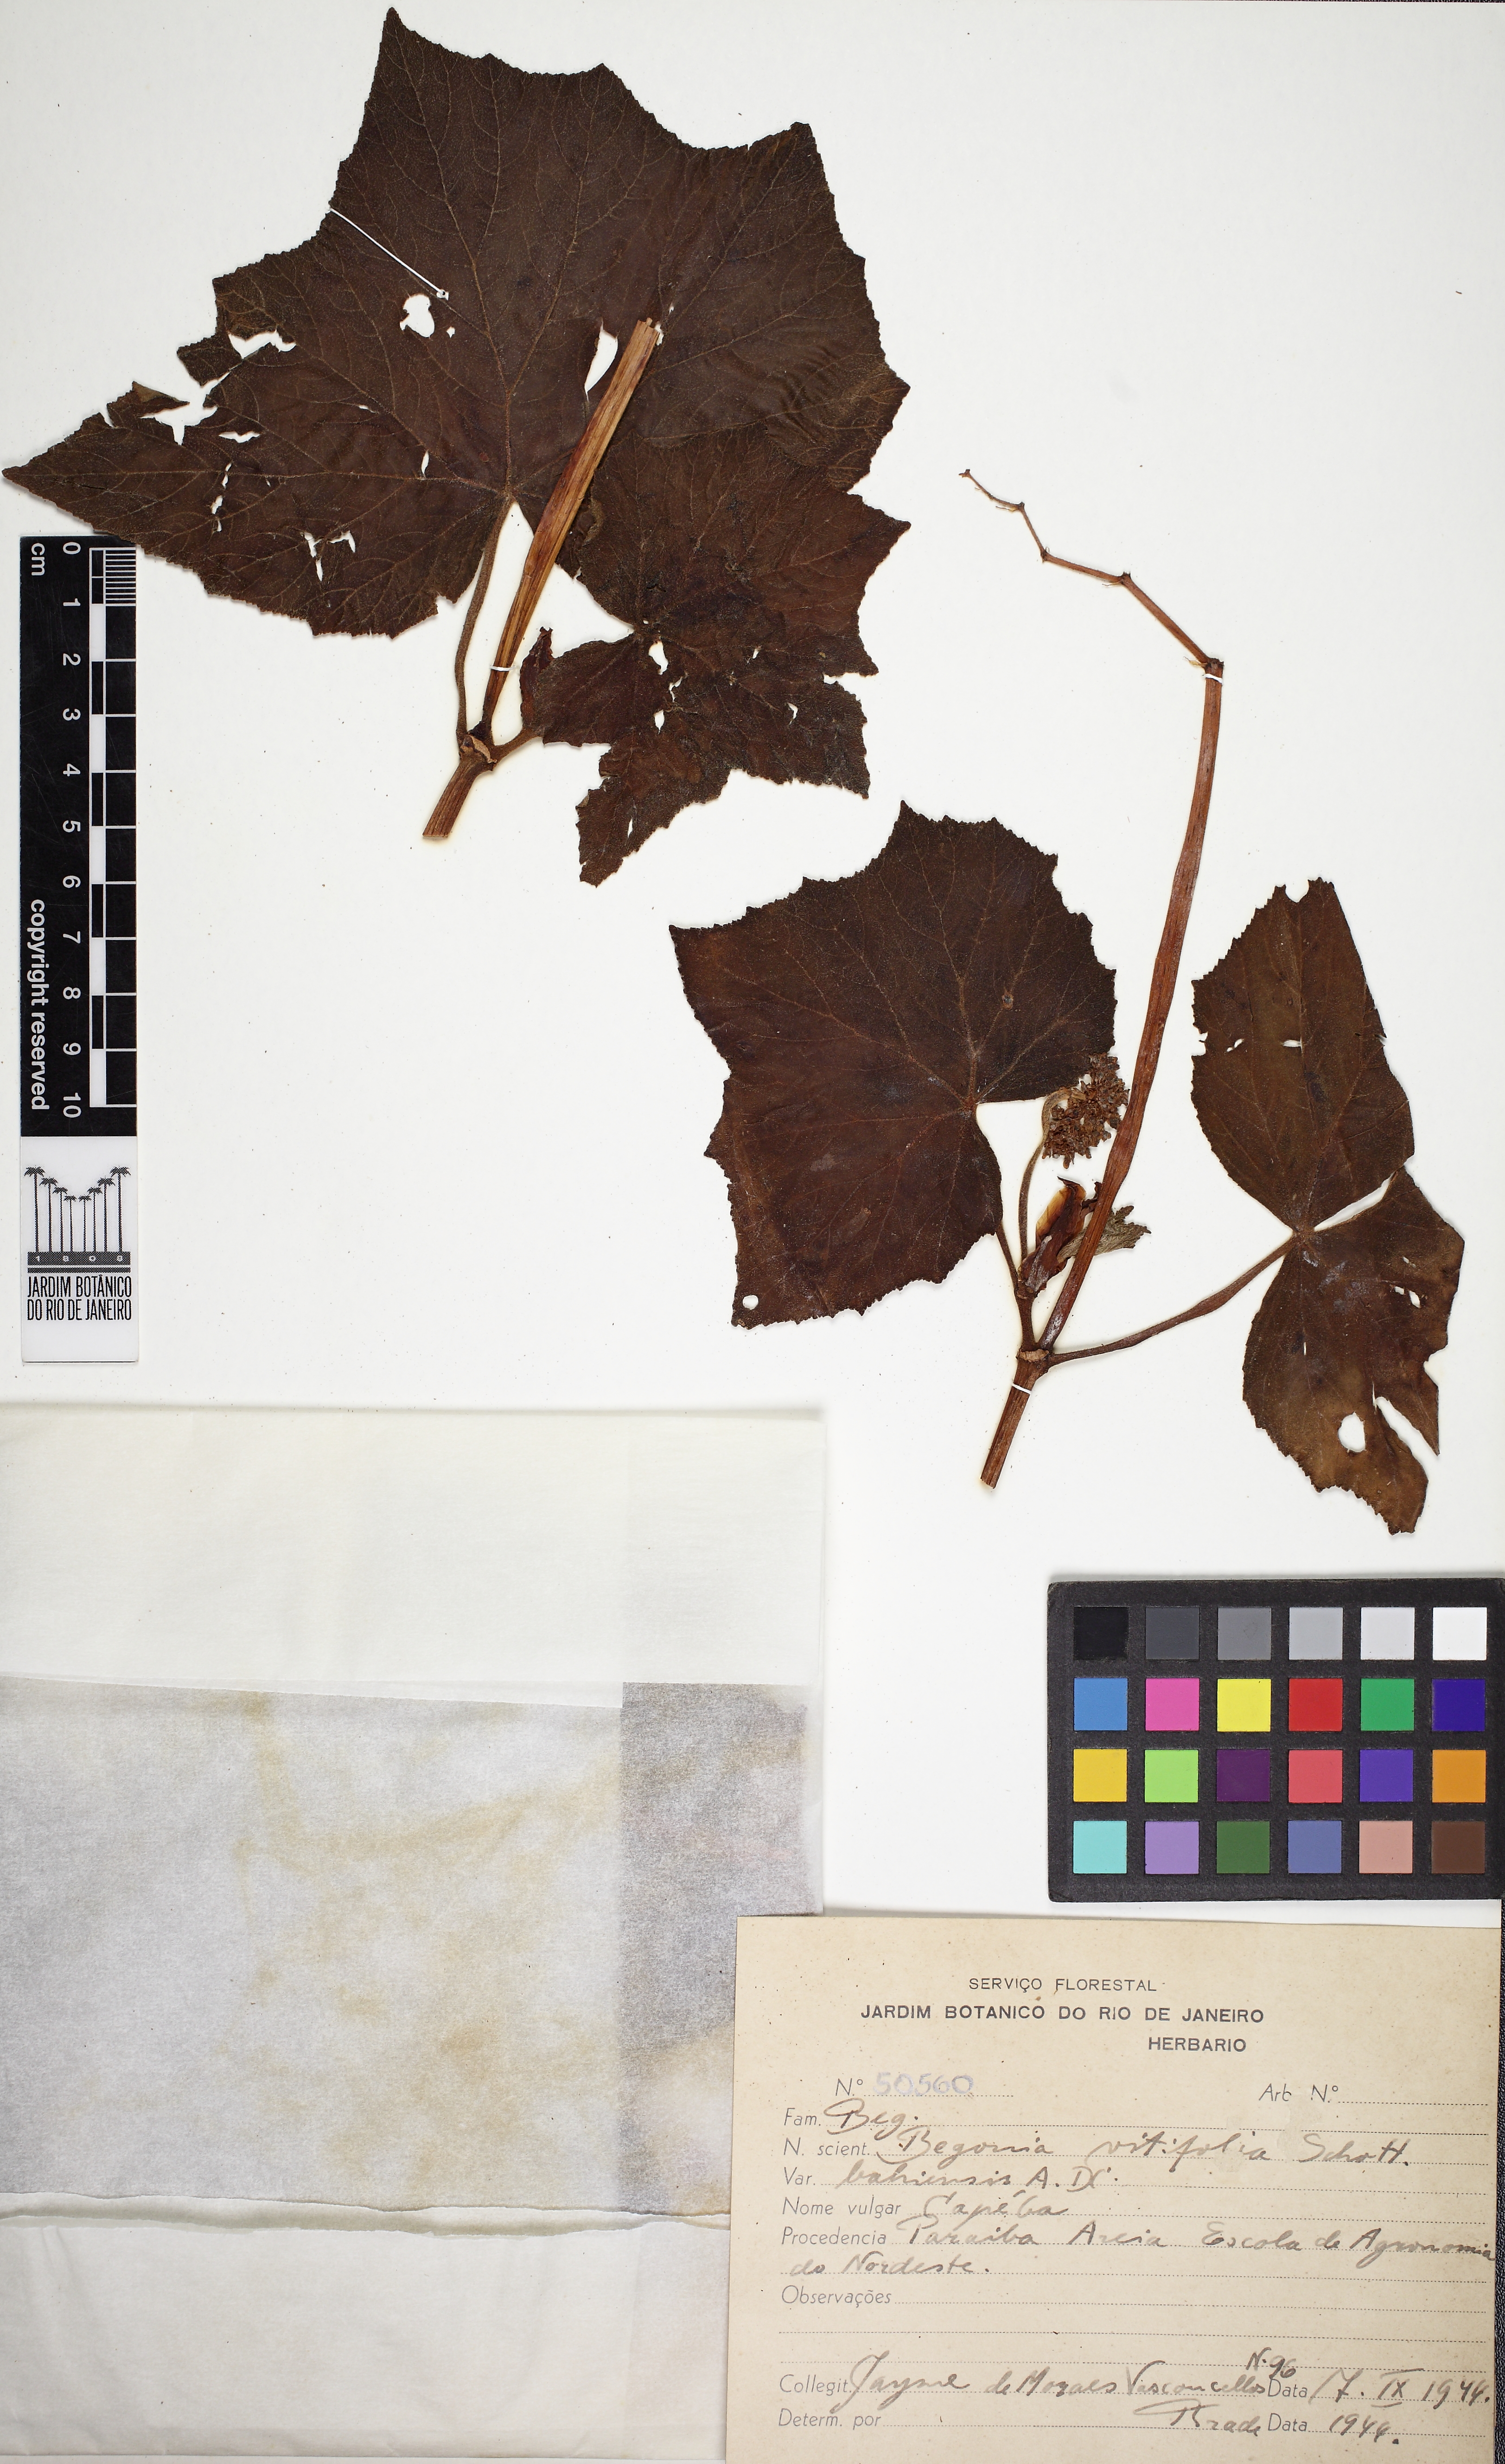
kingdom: Plantae
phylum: Tracheophyta
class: Magnoliopsida
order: Cucurbitales
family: Begoniaceae
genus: Begonia
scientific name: Begonia reniformis
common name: Grapeleaf begonia
